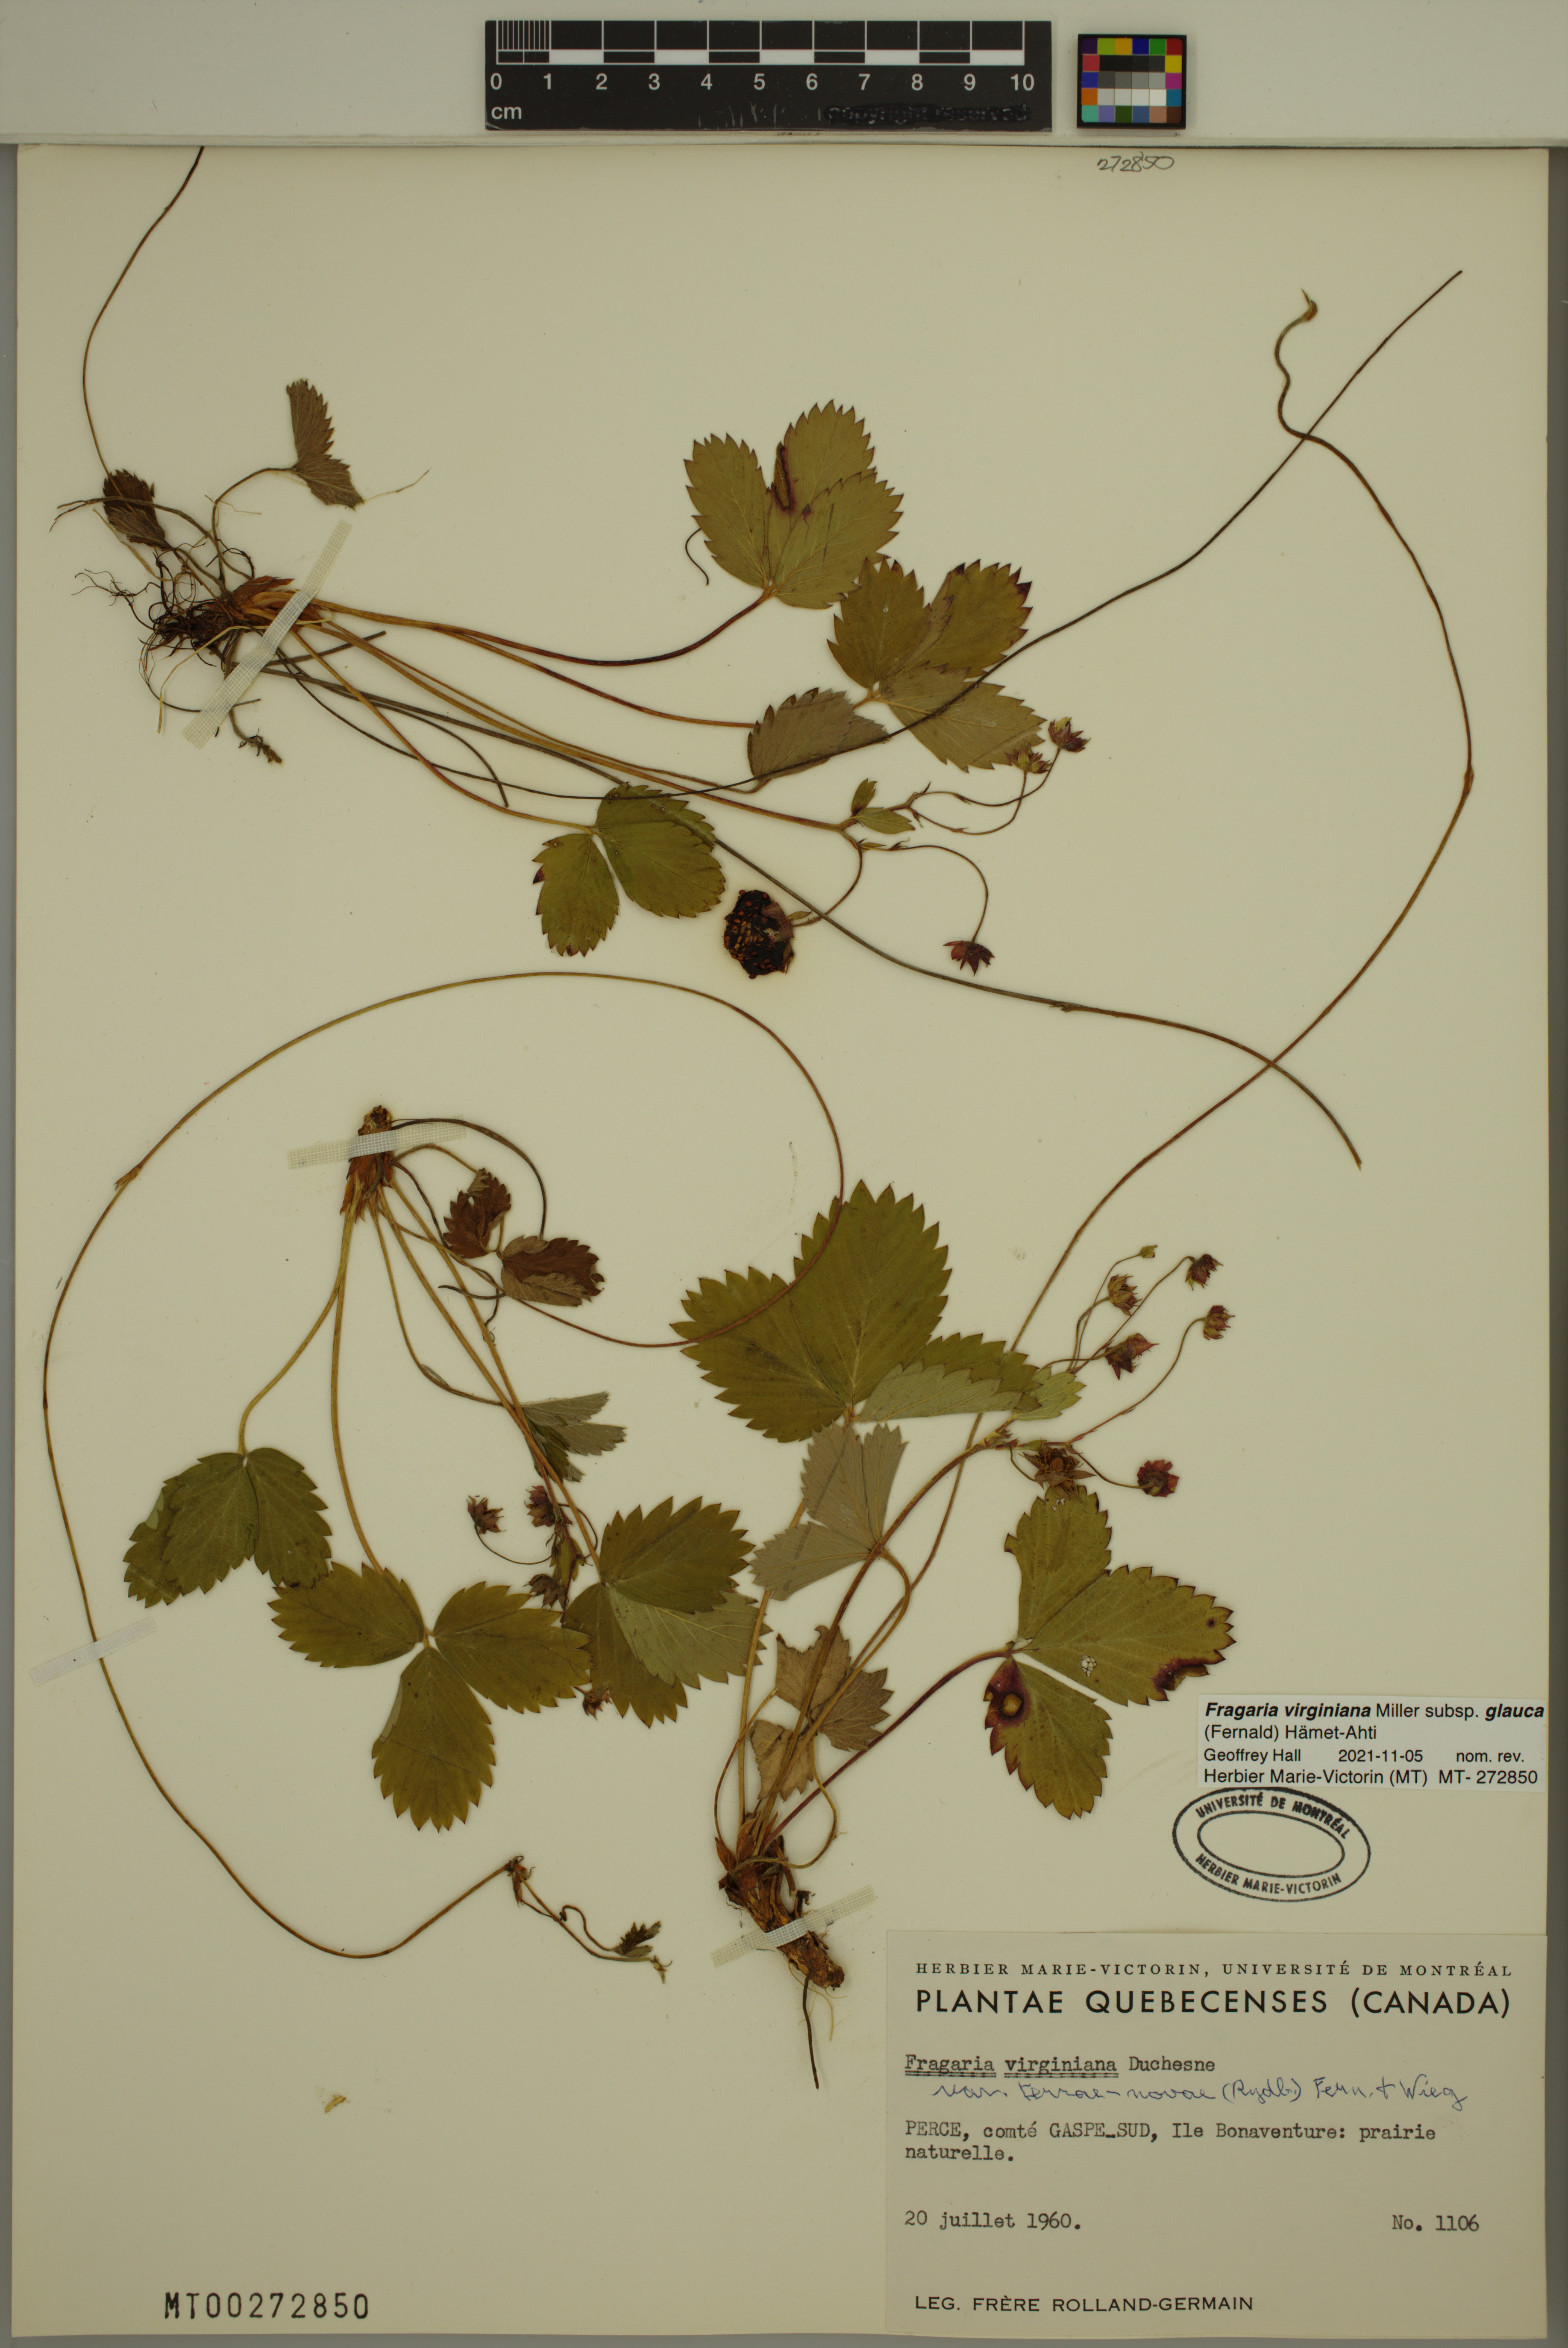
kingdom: Plantae
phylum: Tracheophyta
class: Magnoliopsida
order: Rosales
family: Rosaceae
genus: Fragaria
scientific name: Fragaria virginiana
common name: Thickleaved wild strawberry
